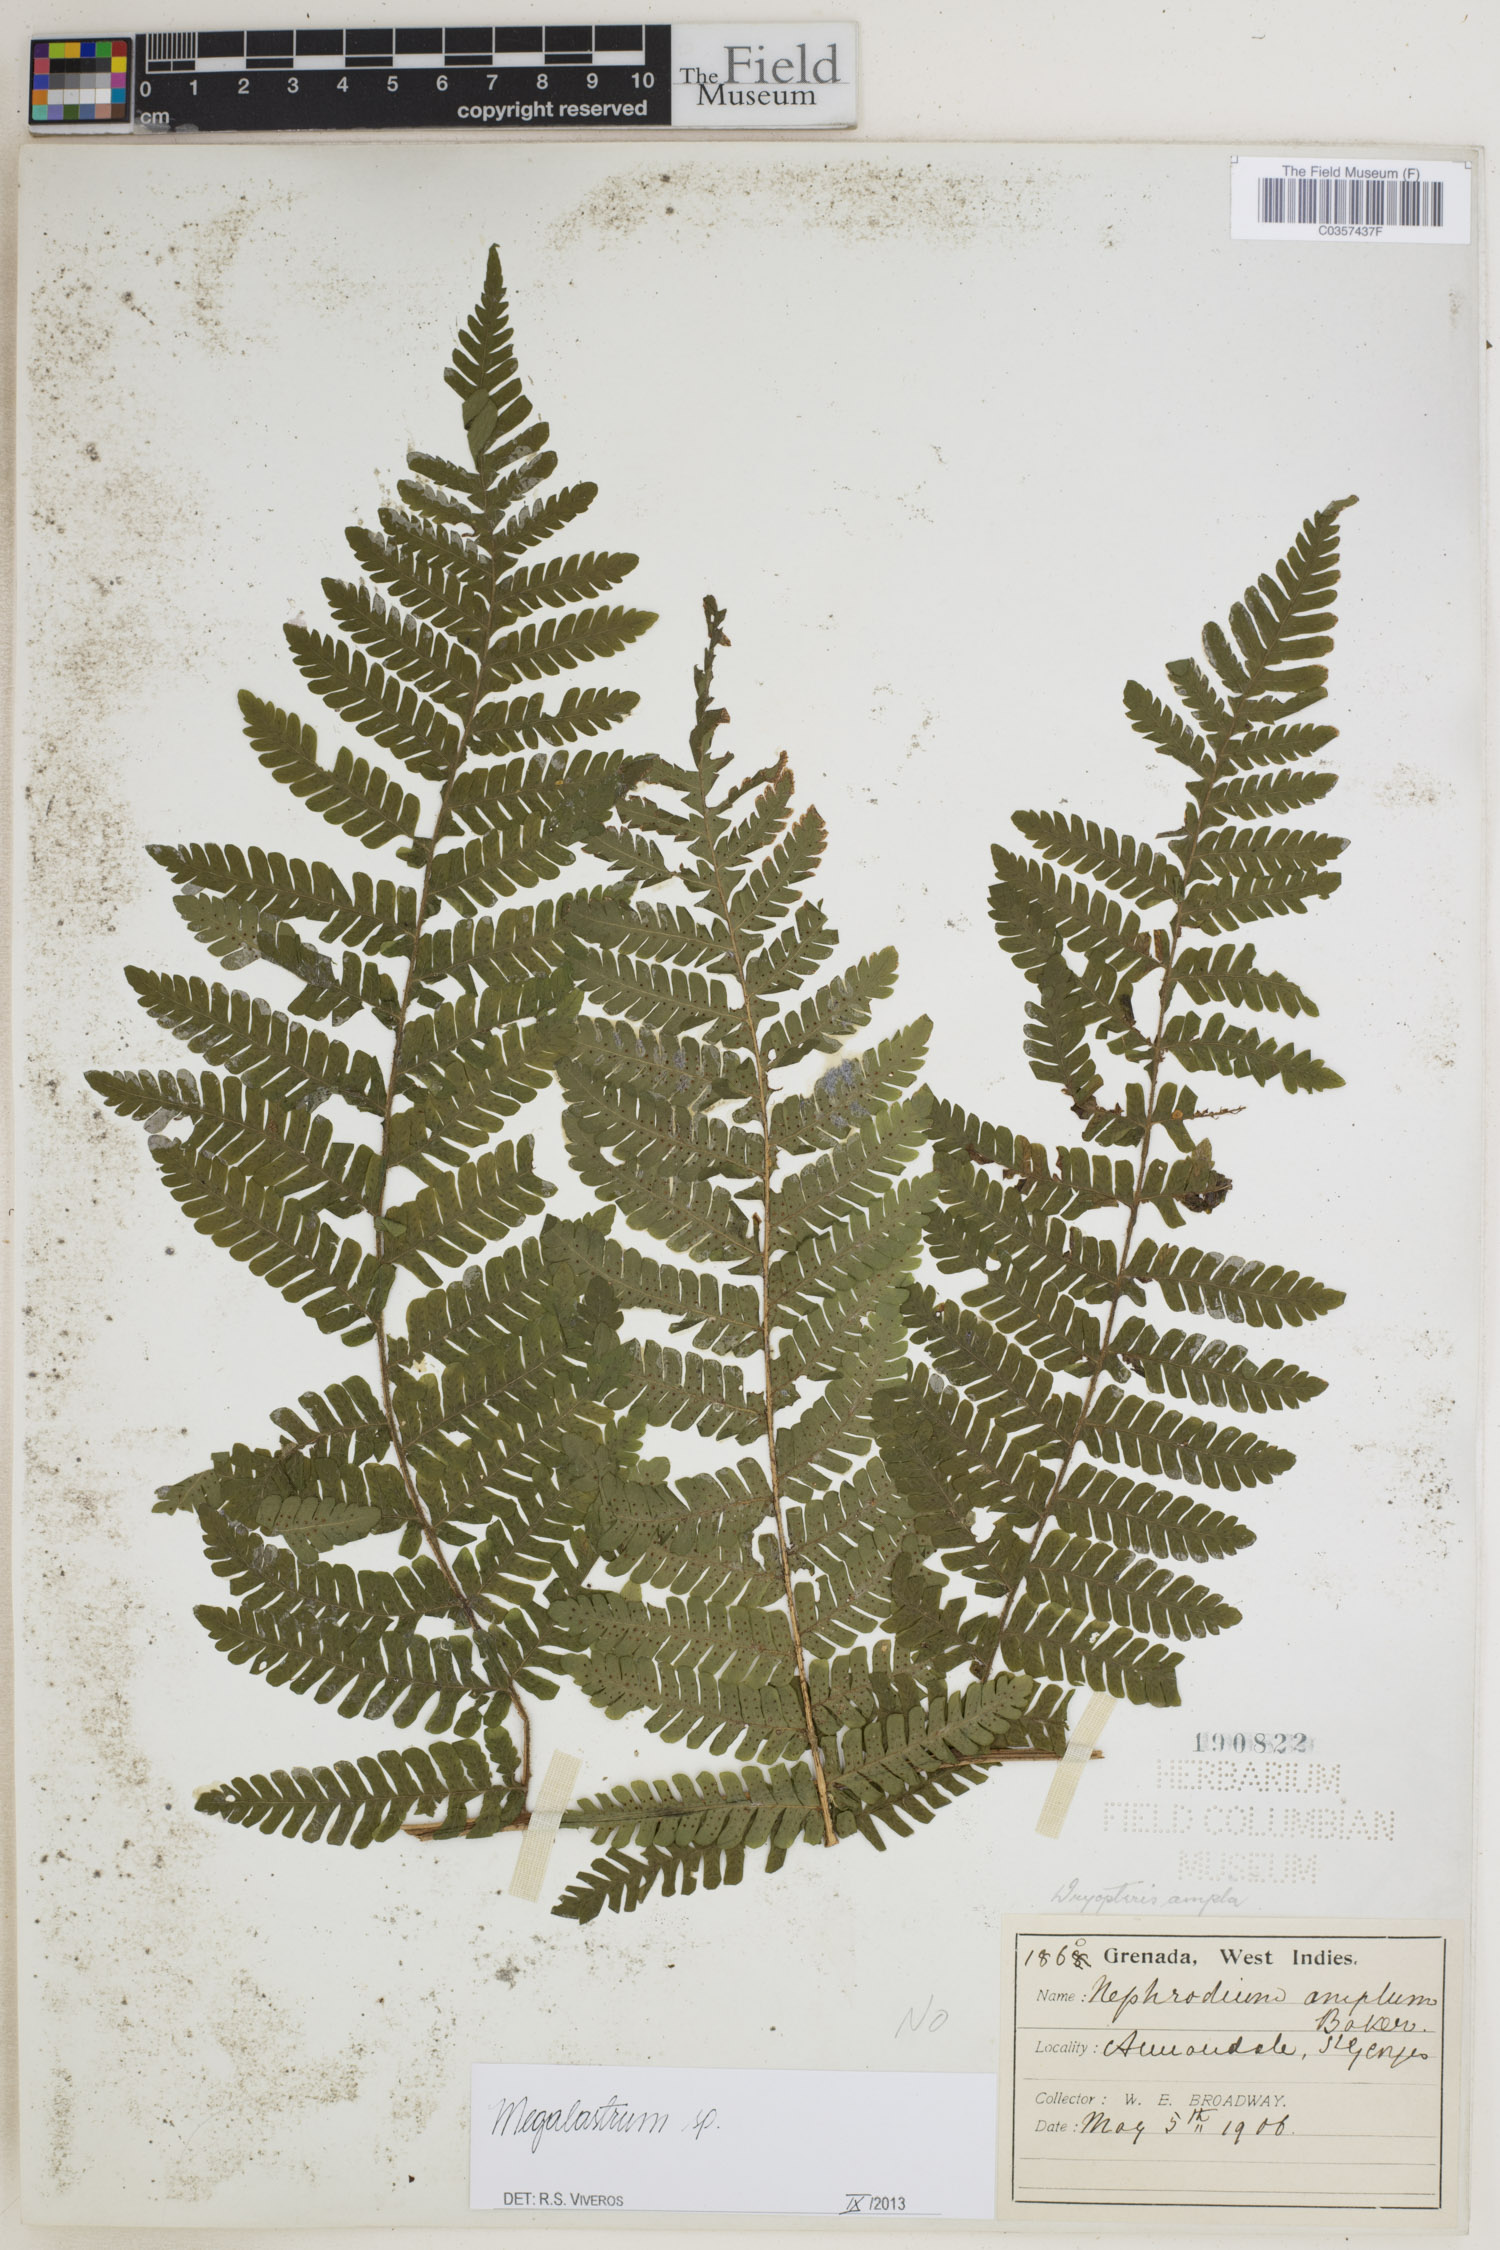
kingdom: Plantae
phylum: Tracheophyta
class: Polypodiopsida
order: Polypodiales
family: Dryopteridaceae
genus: Megalastrum
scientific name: Megalastrum
